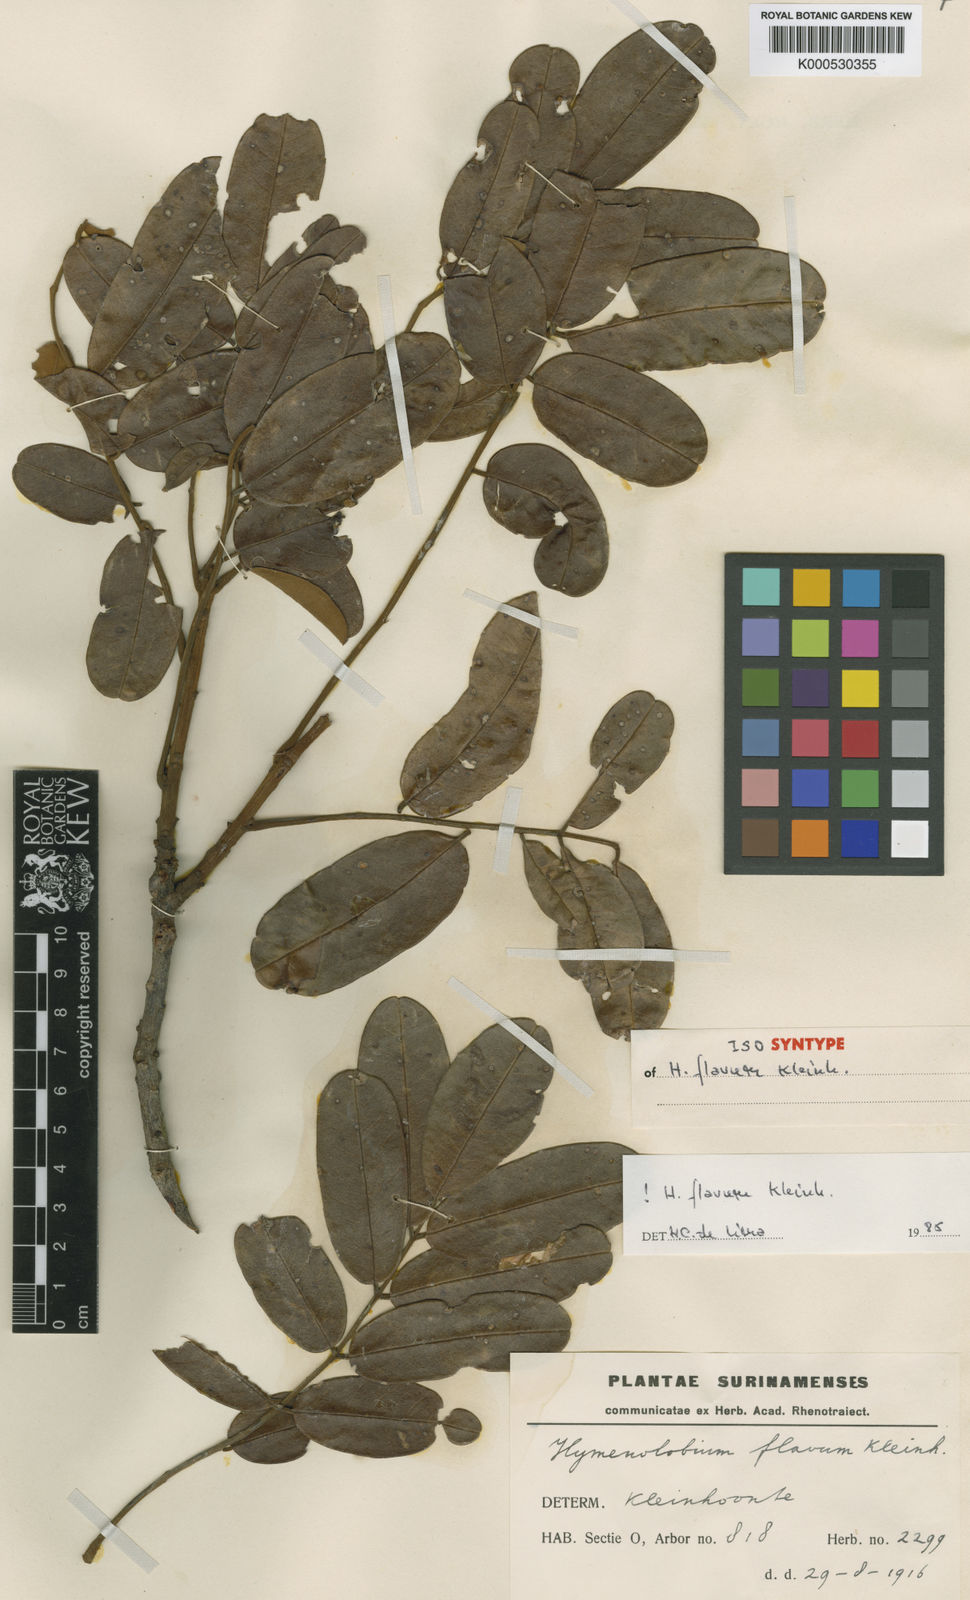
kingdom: Plantae
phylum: Tracheophyta
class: Magnoliopsida
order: Fabales
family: Fabaceae
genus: Hymenolobium
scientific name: Hymenolobium flavum
